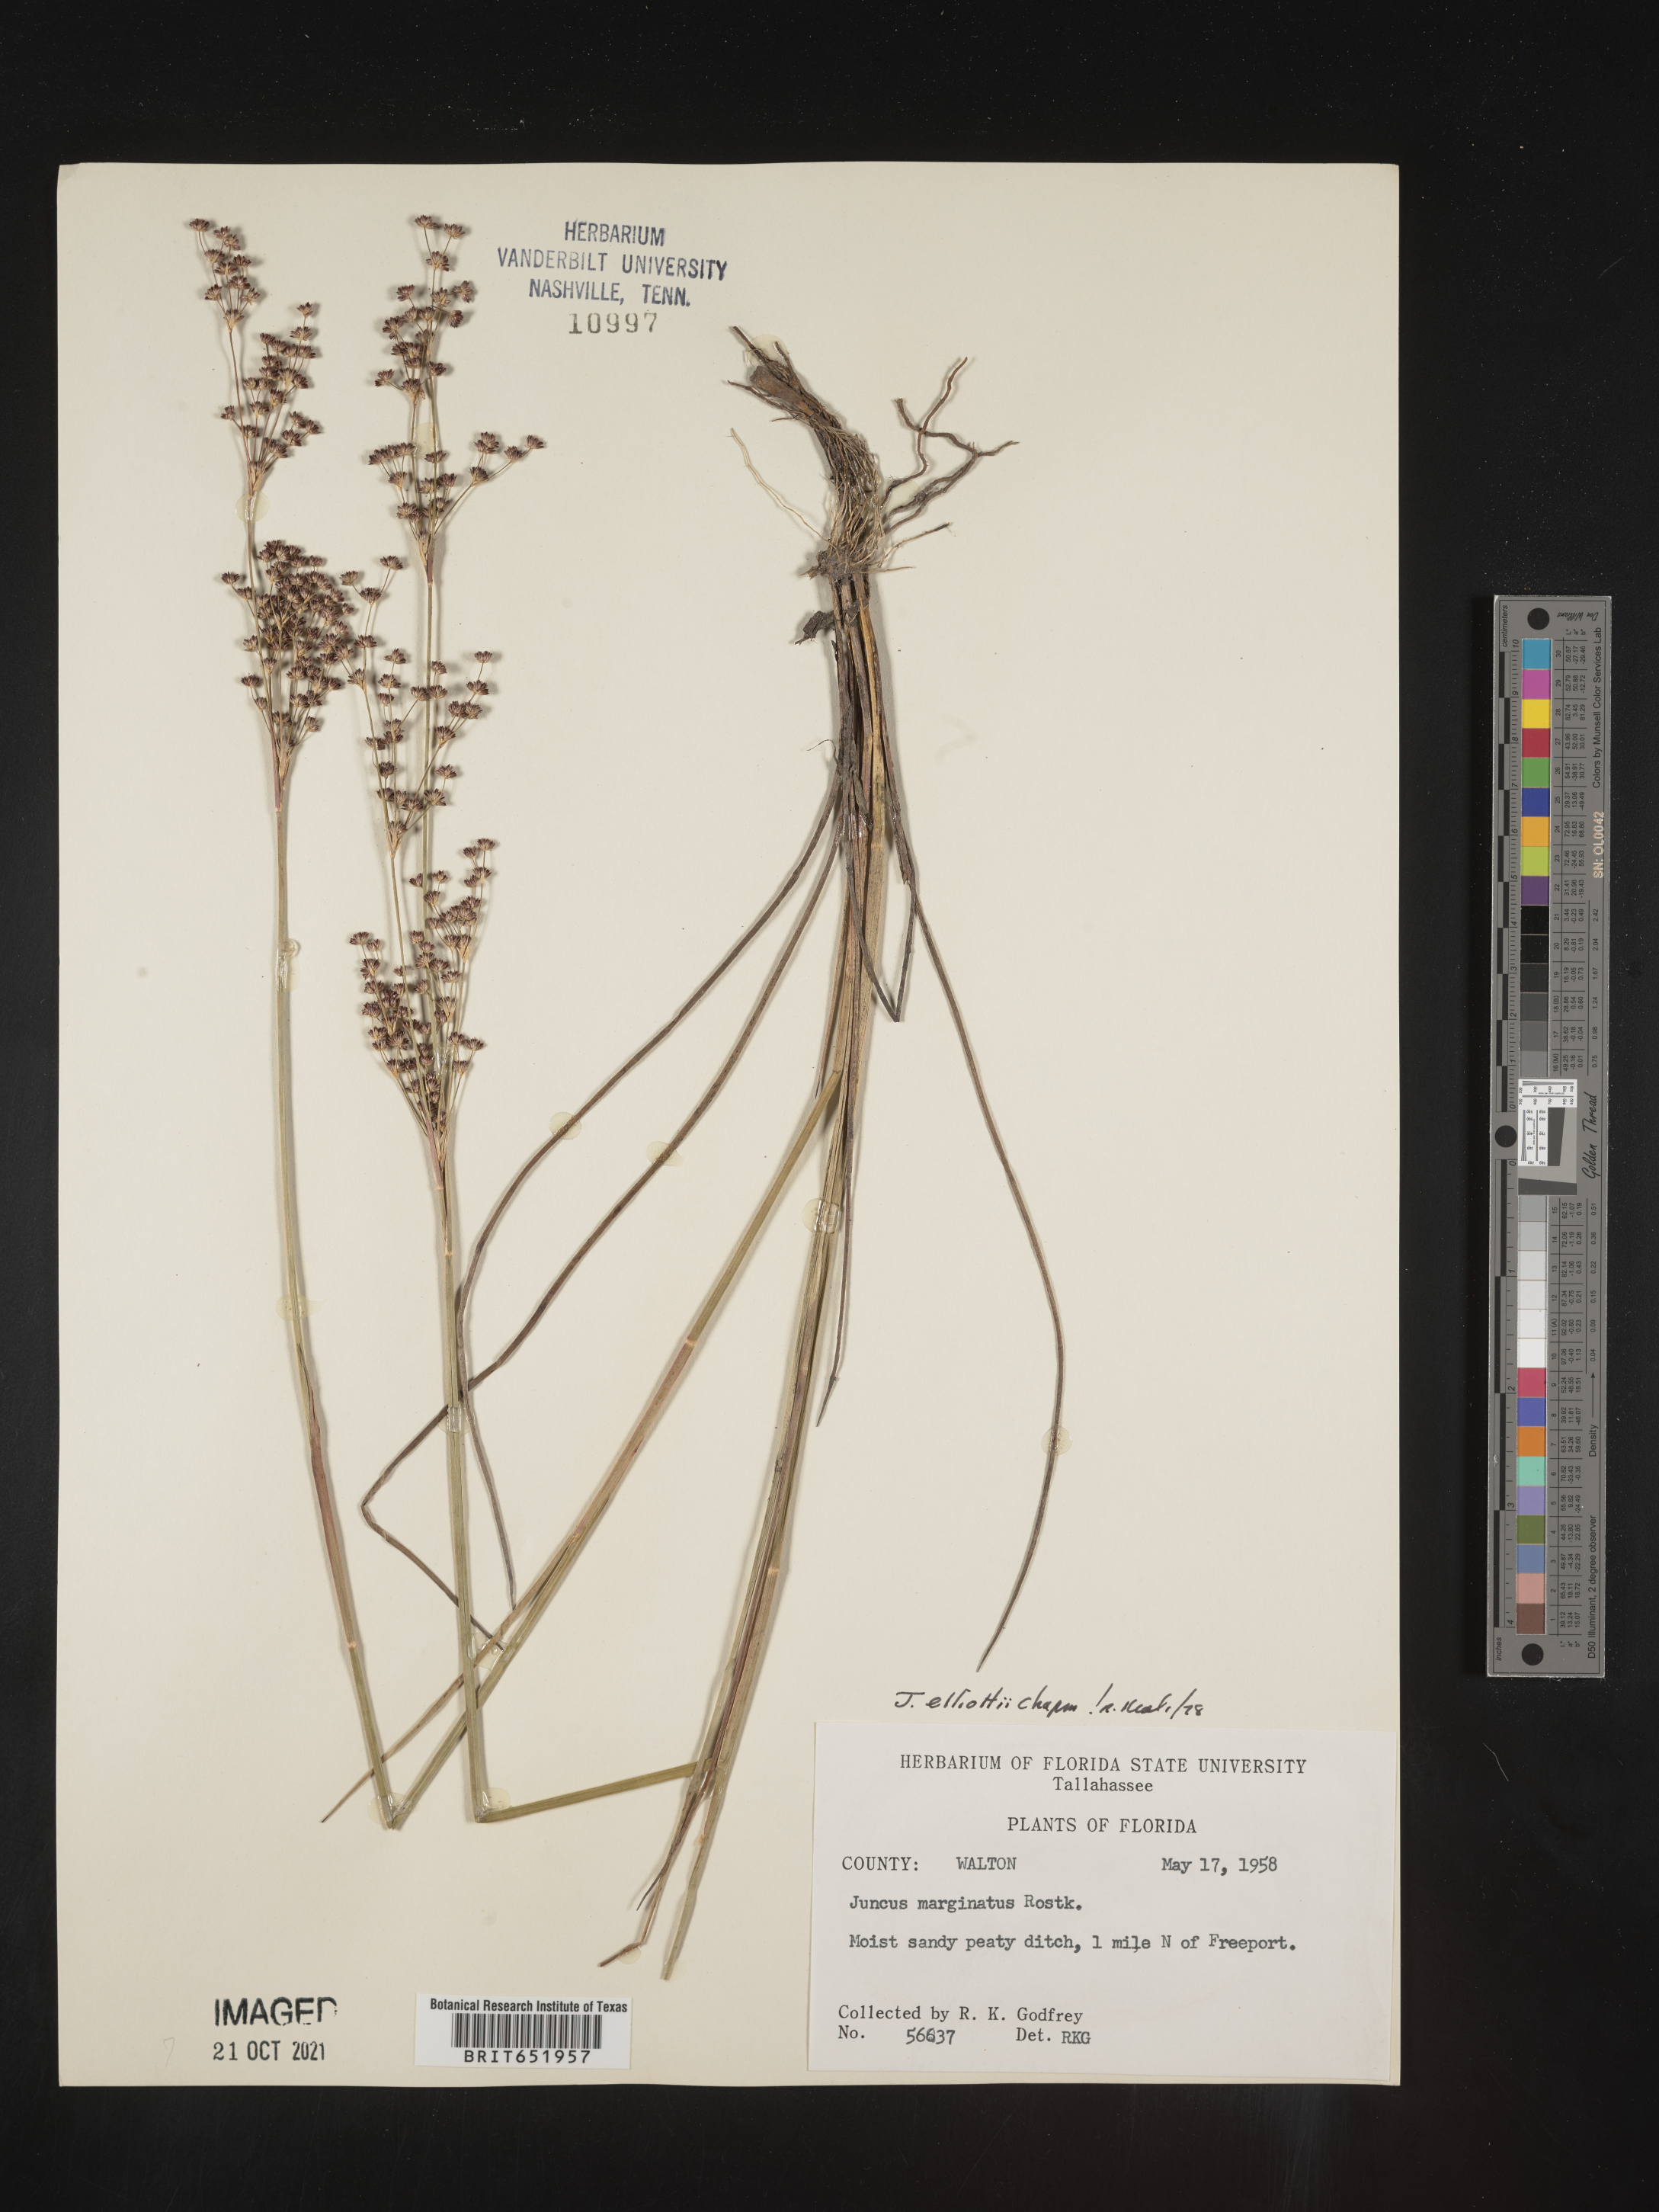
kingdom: Plantae
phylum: Tracheophyta
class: Liliopsida
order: Poales
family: Juncaceae
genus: Juncus
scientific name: Juncus elliottii
